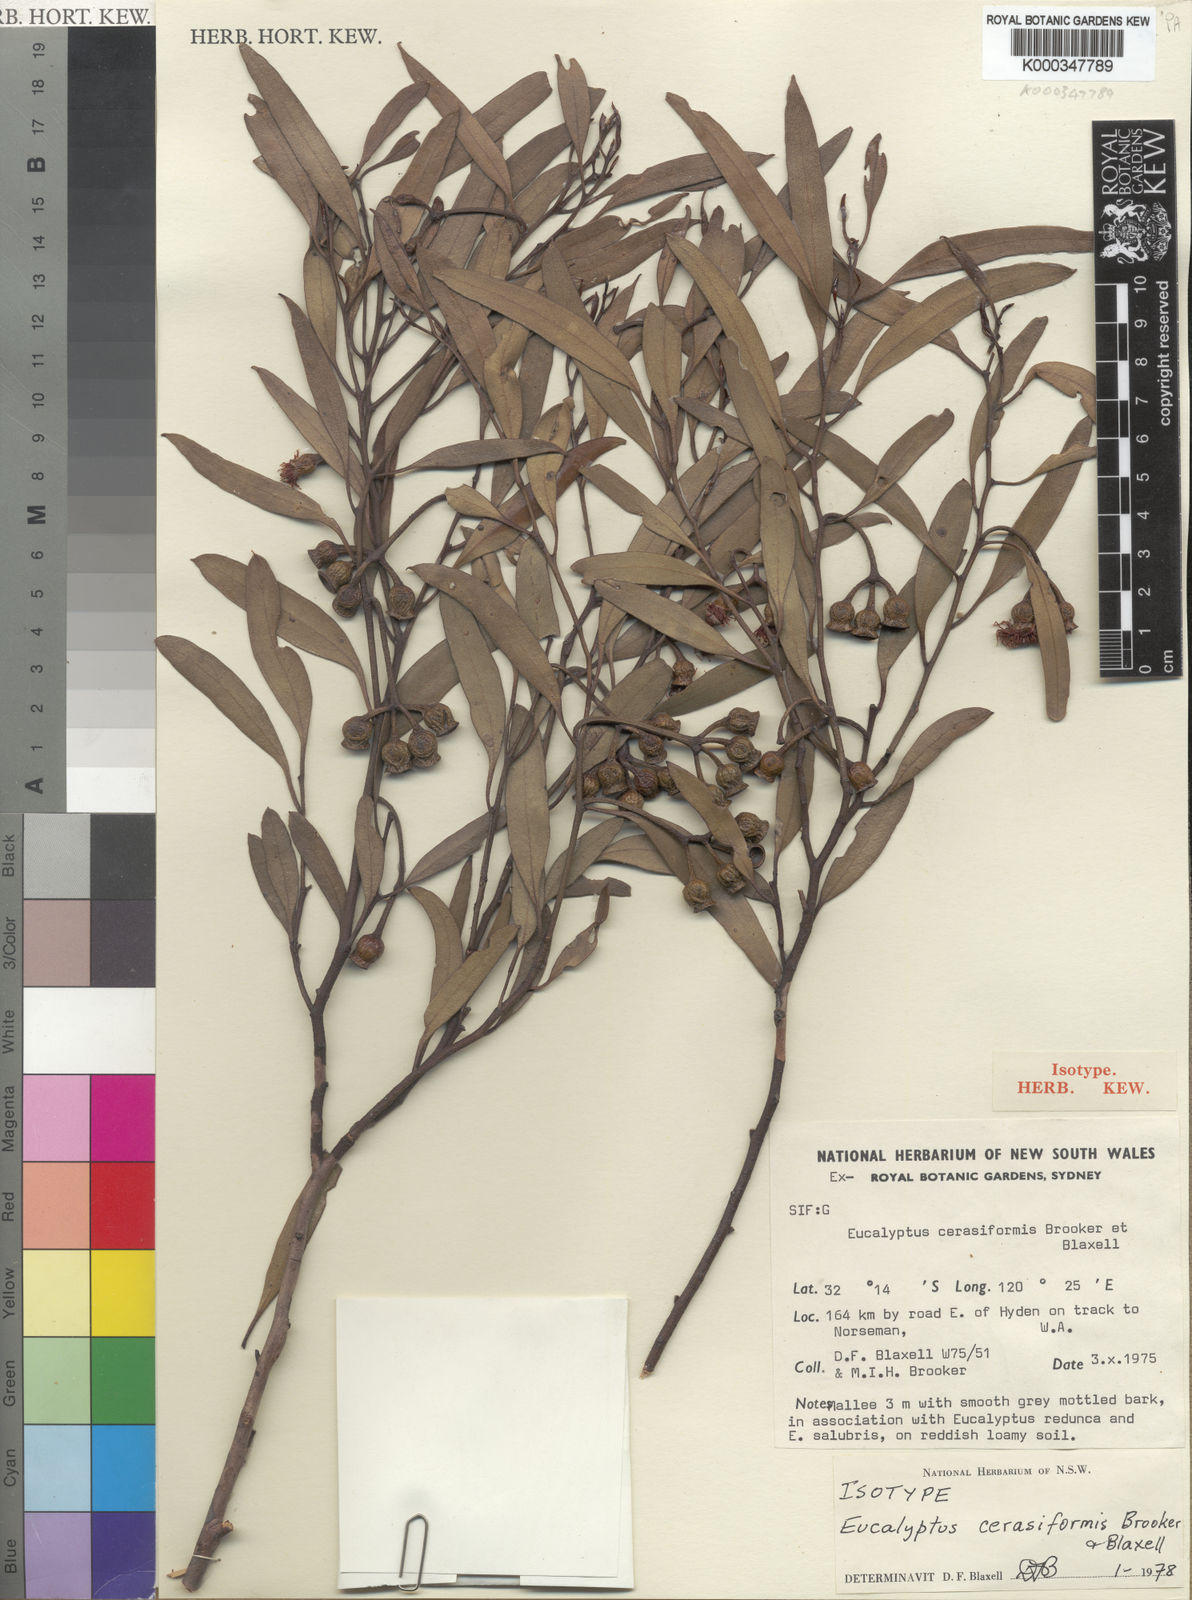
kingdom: Plantae
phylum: Tracheophyta
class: Magnoliopsida
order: Myrtales
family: Myrtaceae
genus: Eucalyptus
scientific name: Eucalyptus cerasiformis
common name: Cherry-fruited mallee
